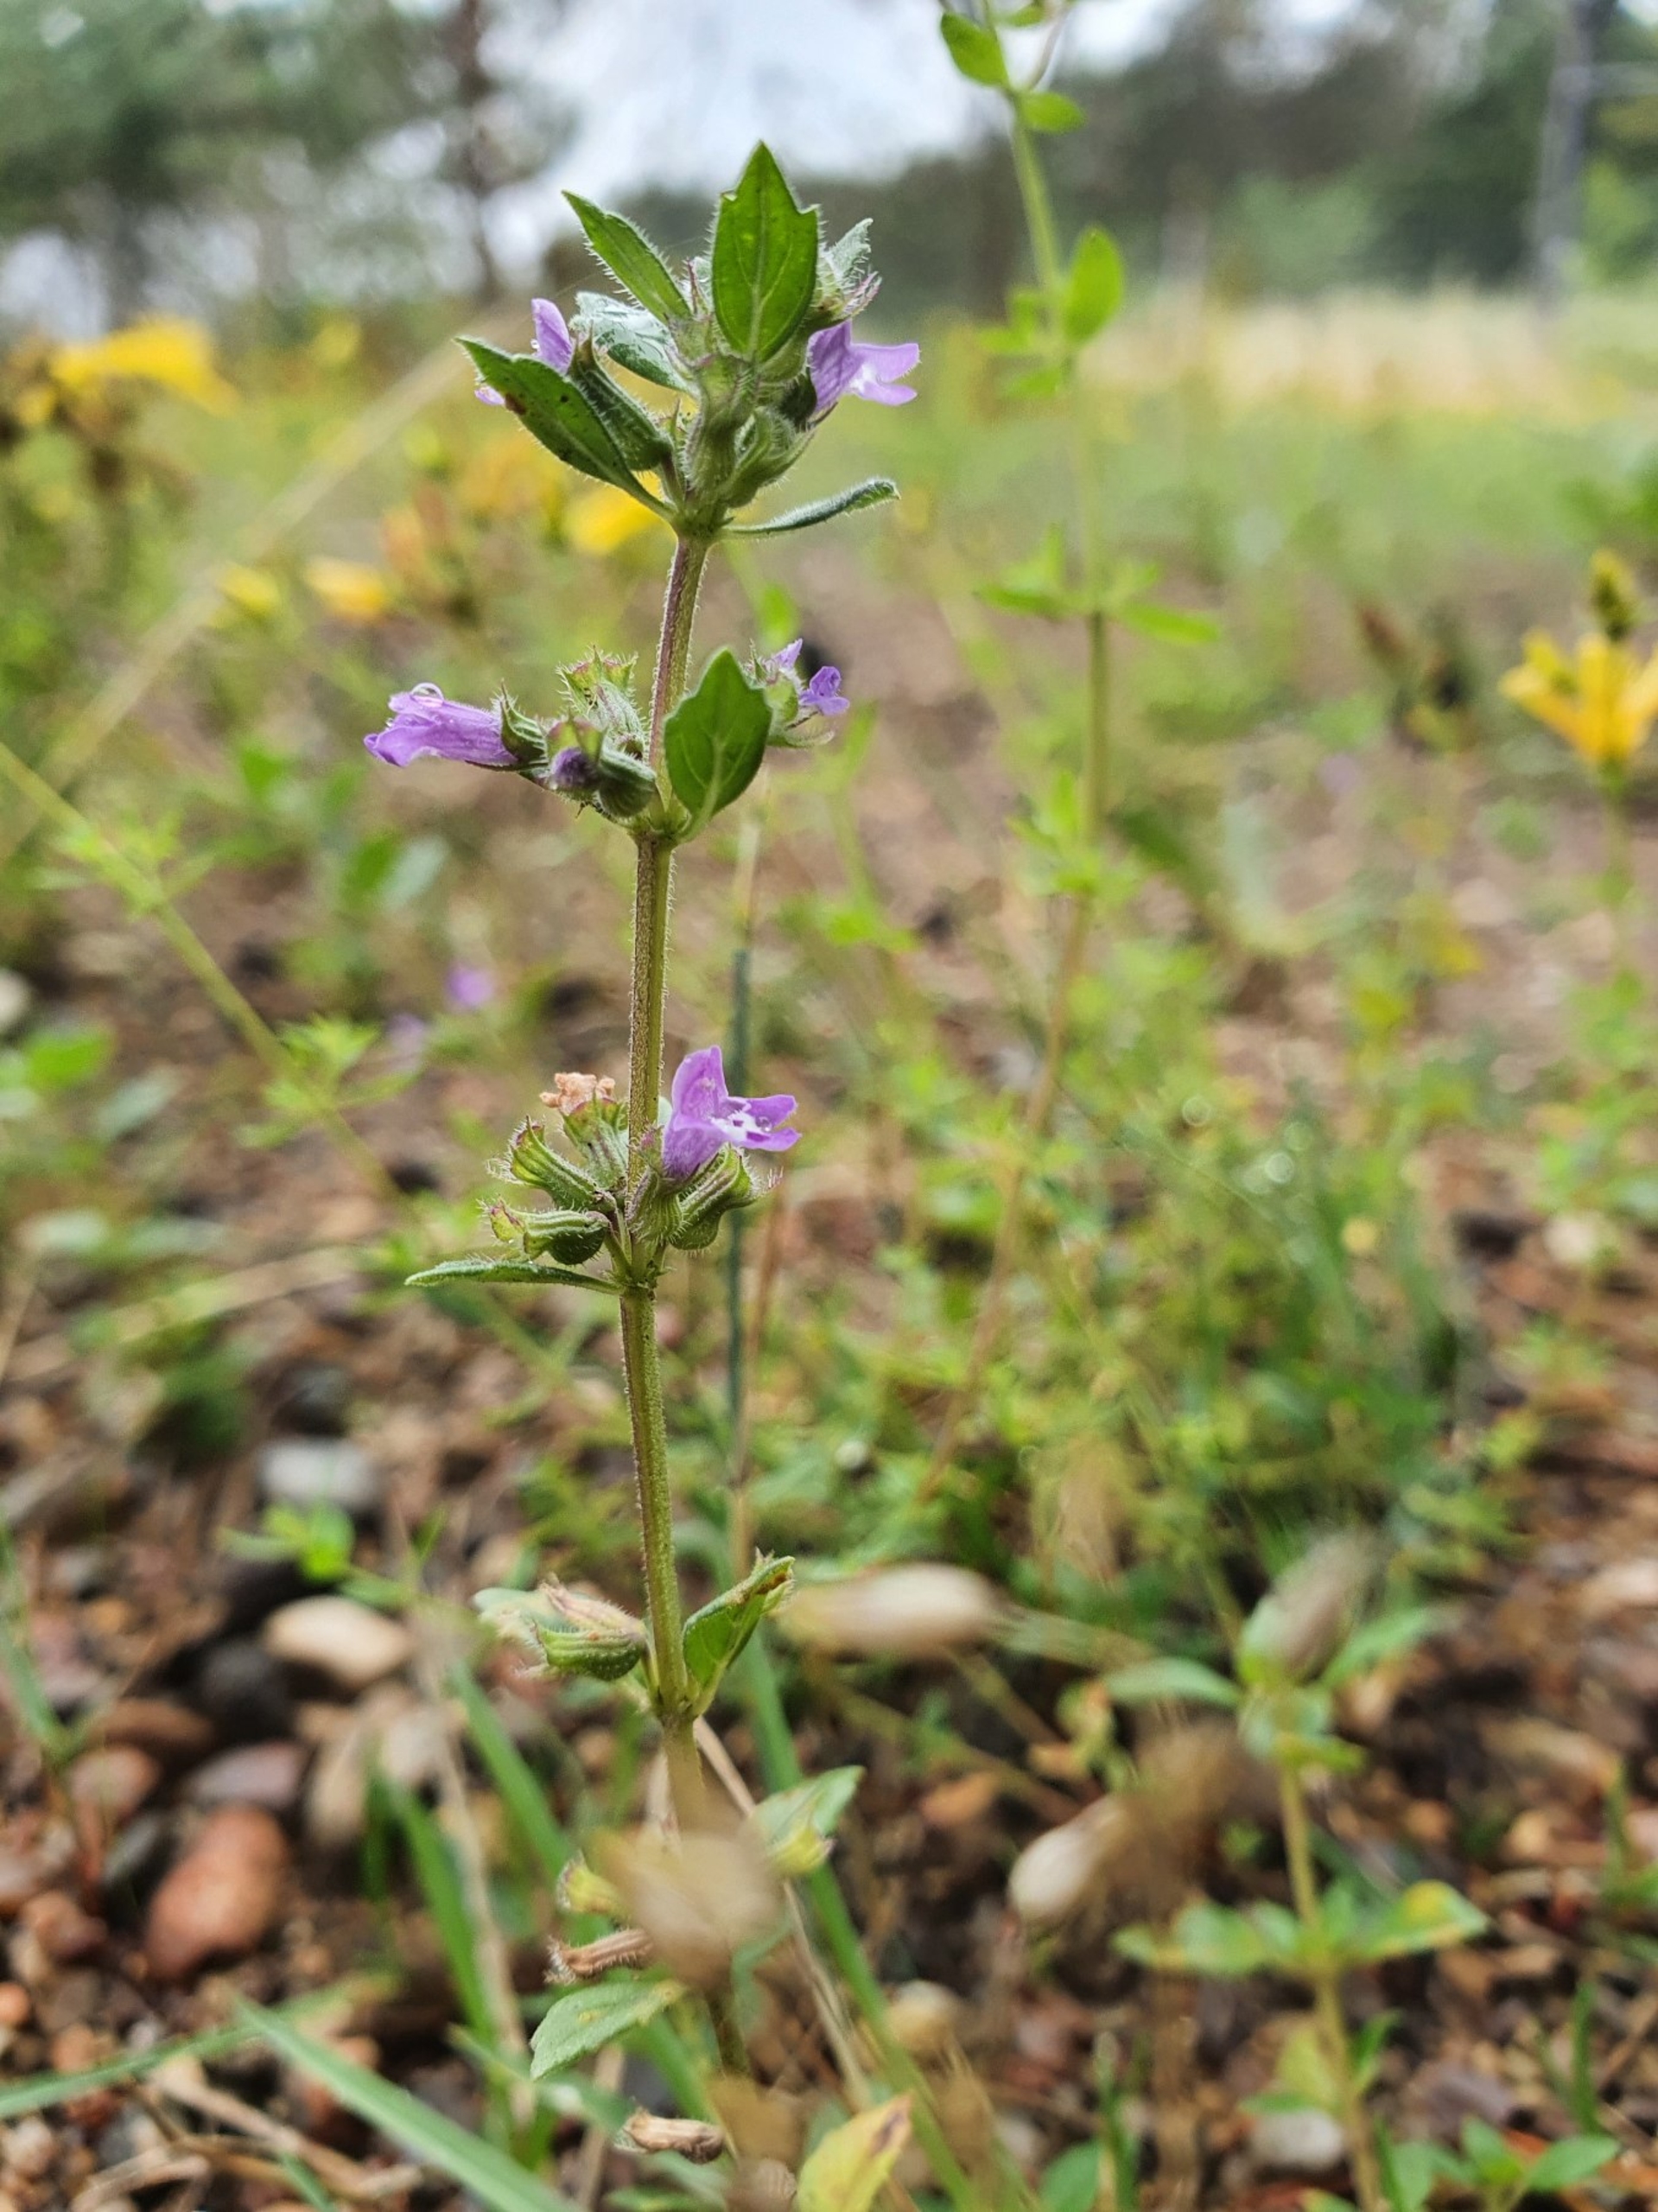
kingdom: Plantae
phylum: Tracheophyta
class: Magnoliopsida
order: Lamiales
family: Lamiaceae
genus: Clinopodium
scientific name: Clinopodium acinos
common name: Voldtimian
